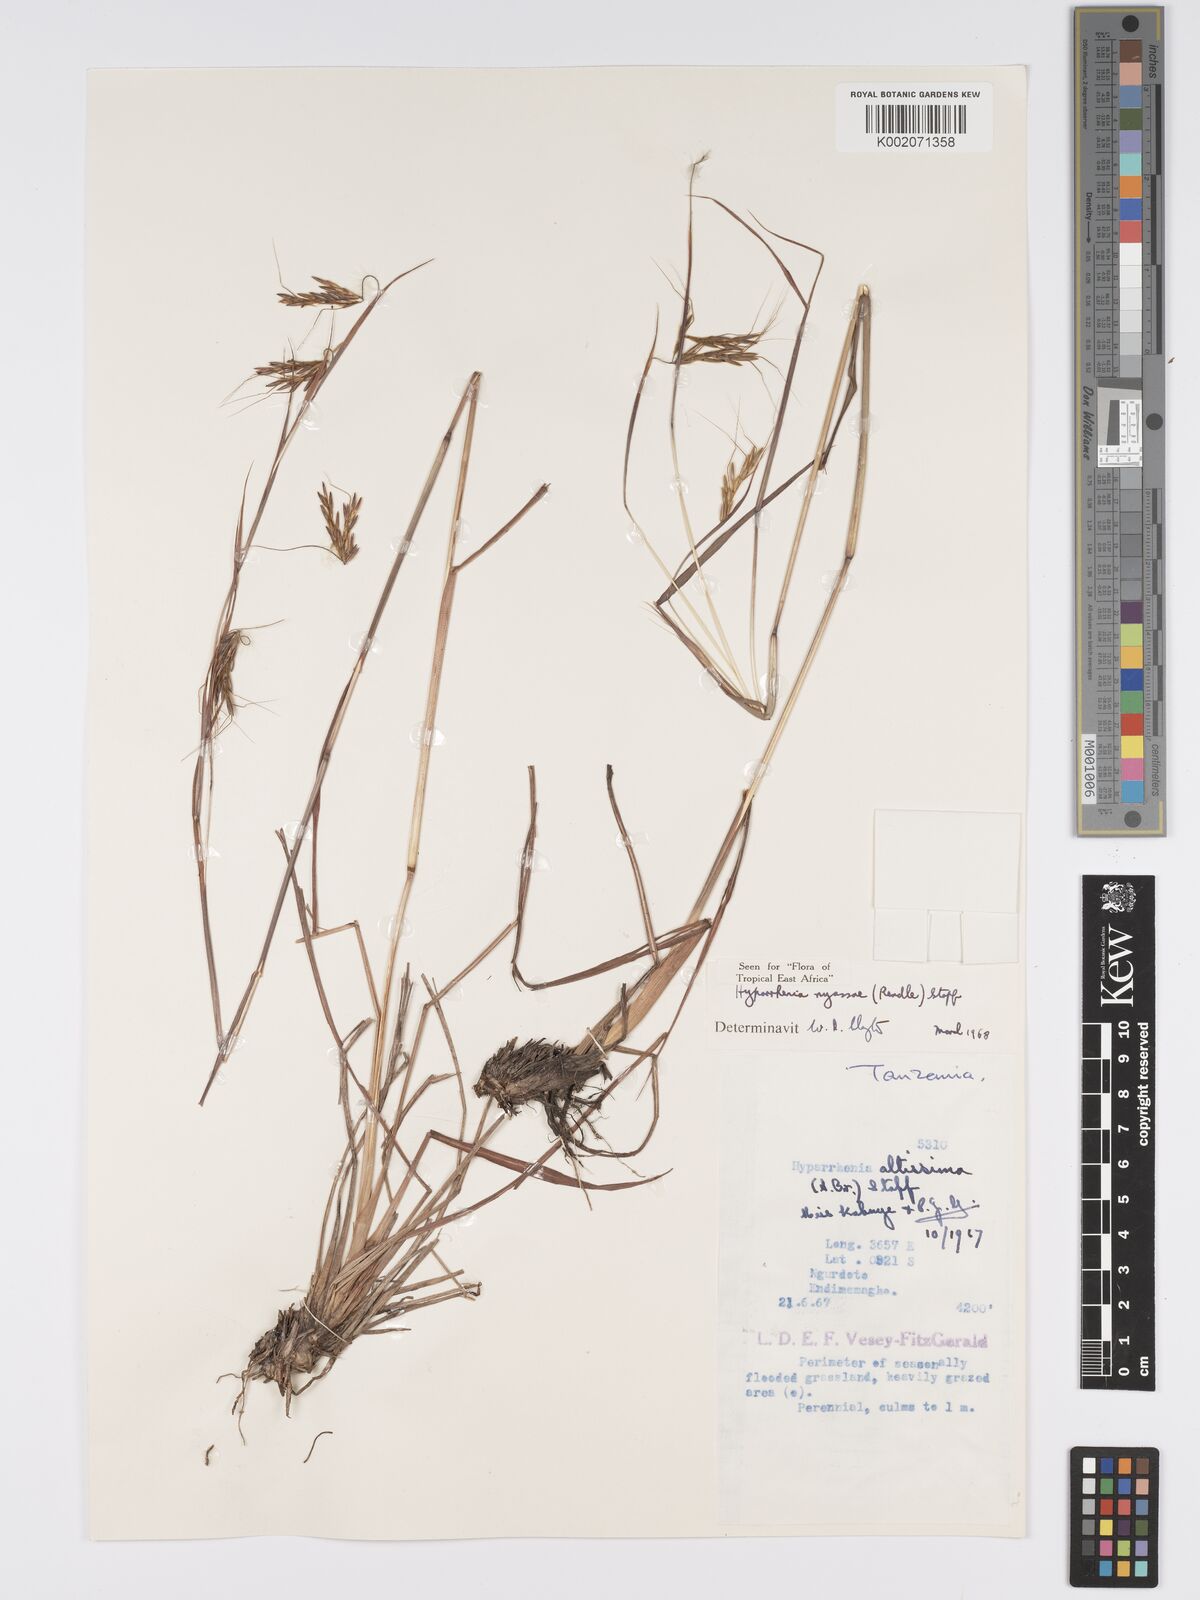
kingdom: Plantae
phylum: Tracheophyta
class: Liliopsida
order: Poales
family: Poaceae
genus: Hyparrhenia
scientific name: Hyparrhenia nyassae
